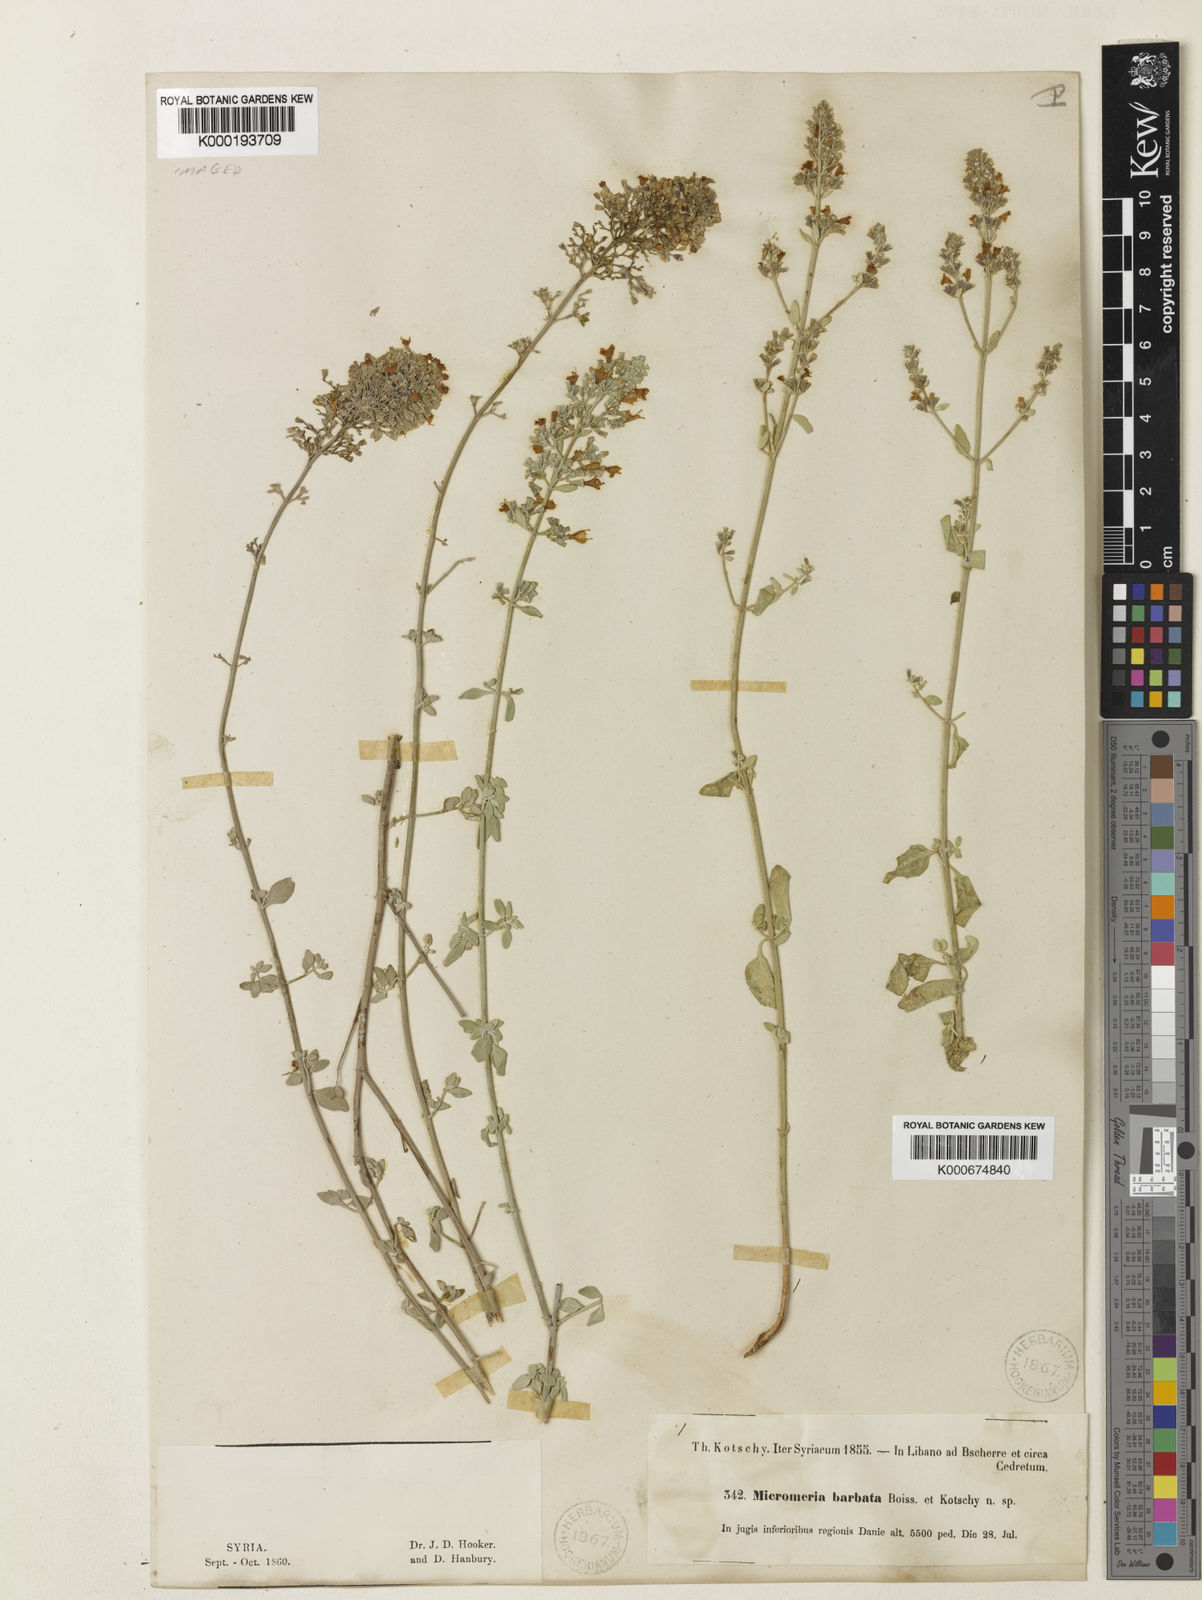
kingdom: Plantae
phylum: Tracheophyta
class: Magnoliopsida
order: Lamiales
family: Lamiaceae
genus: Clinopodium
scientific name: Clinopodium barbatum
